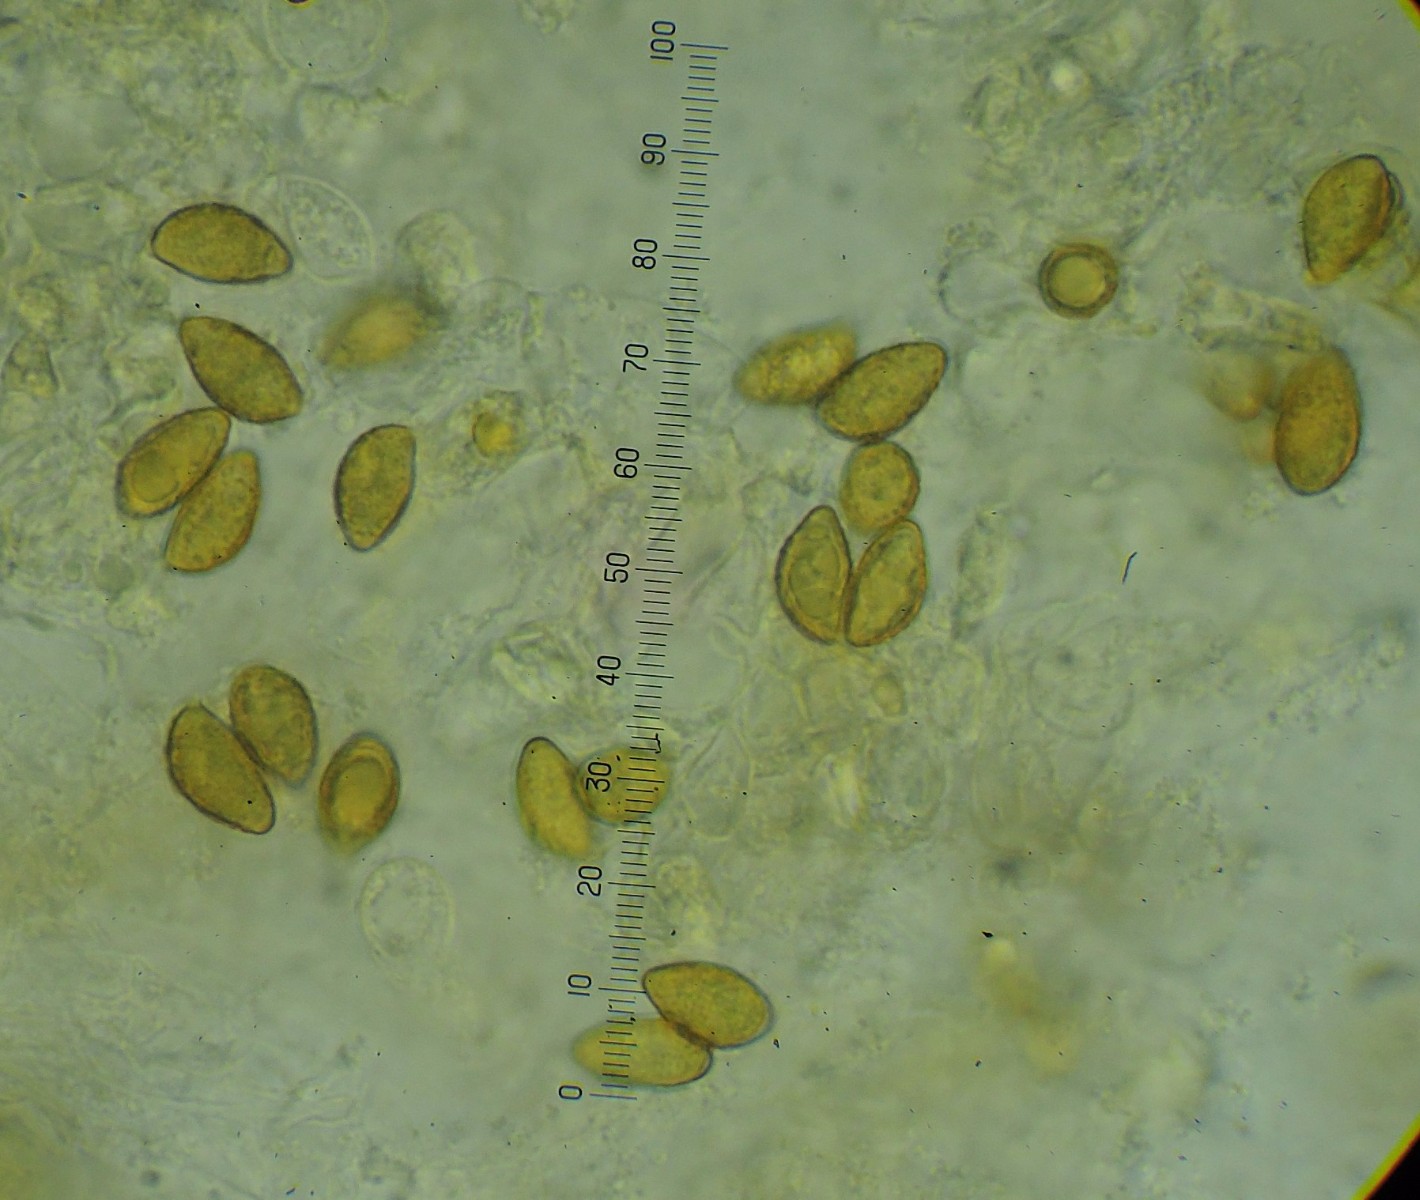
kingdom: Fungi
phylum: Basidiomycota
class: Agaricomycetes
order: Agaricales
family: Cortinariaceae
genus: Cortinarius
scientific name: Cortinarius largus
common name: violetrandet slørhat
